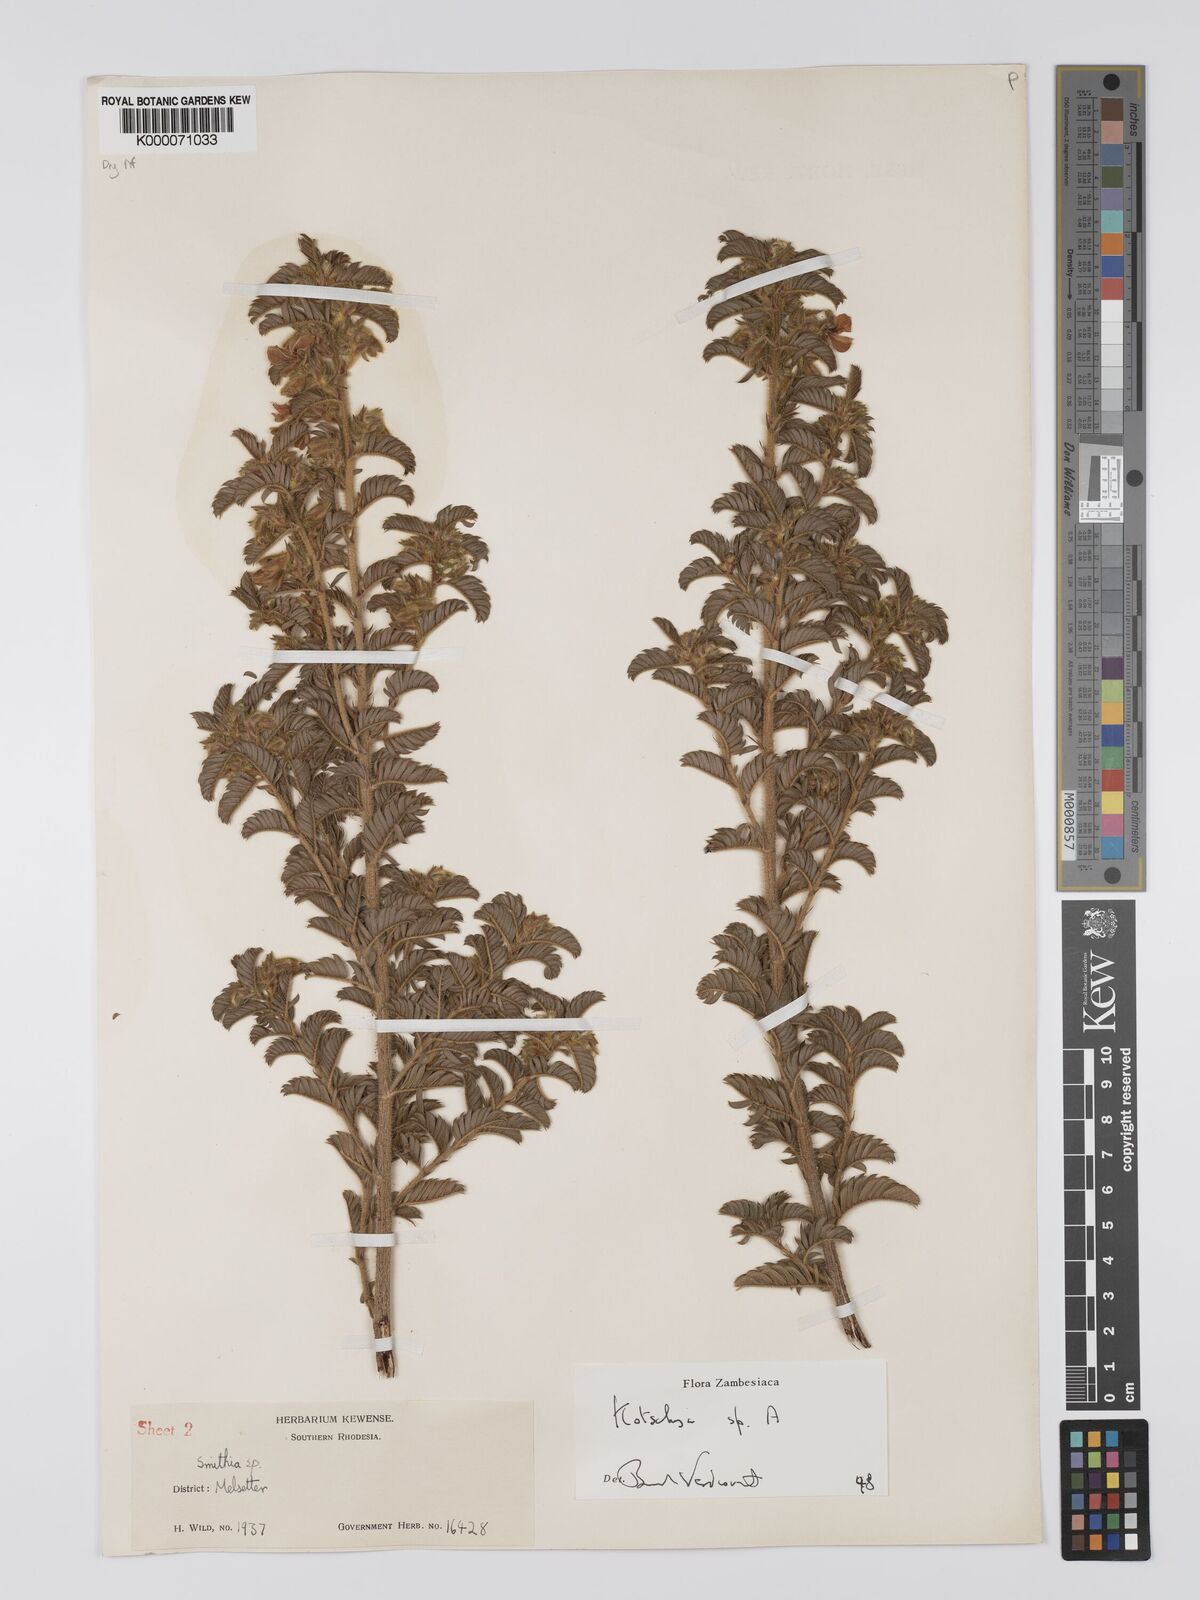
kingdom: Plantae
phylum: Tracheophyta
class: Magnoliopsida
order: Fabales
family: Fabaceae
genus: Kotschya
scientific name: Kotschya
